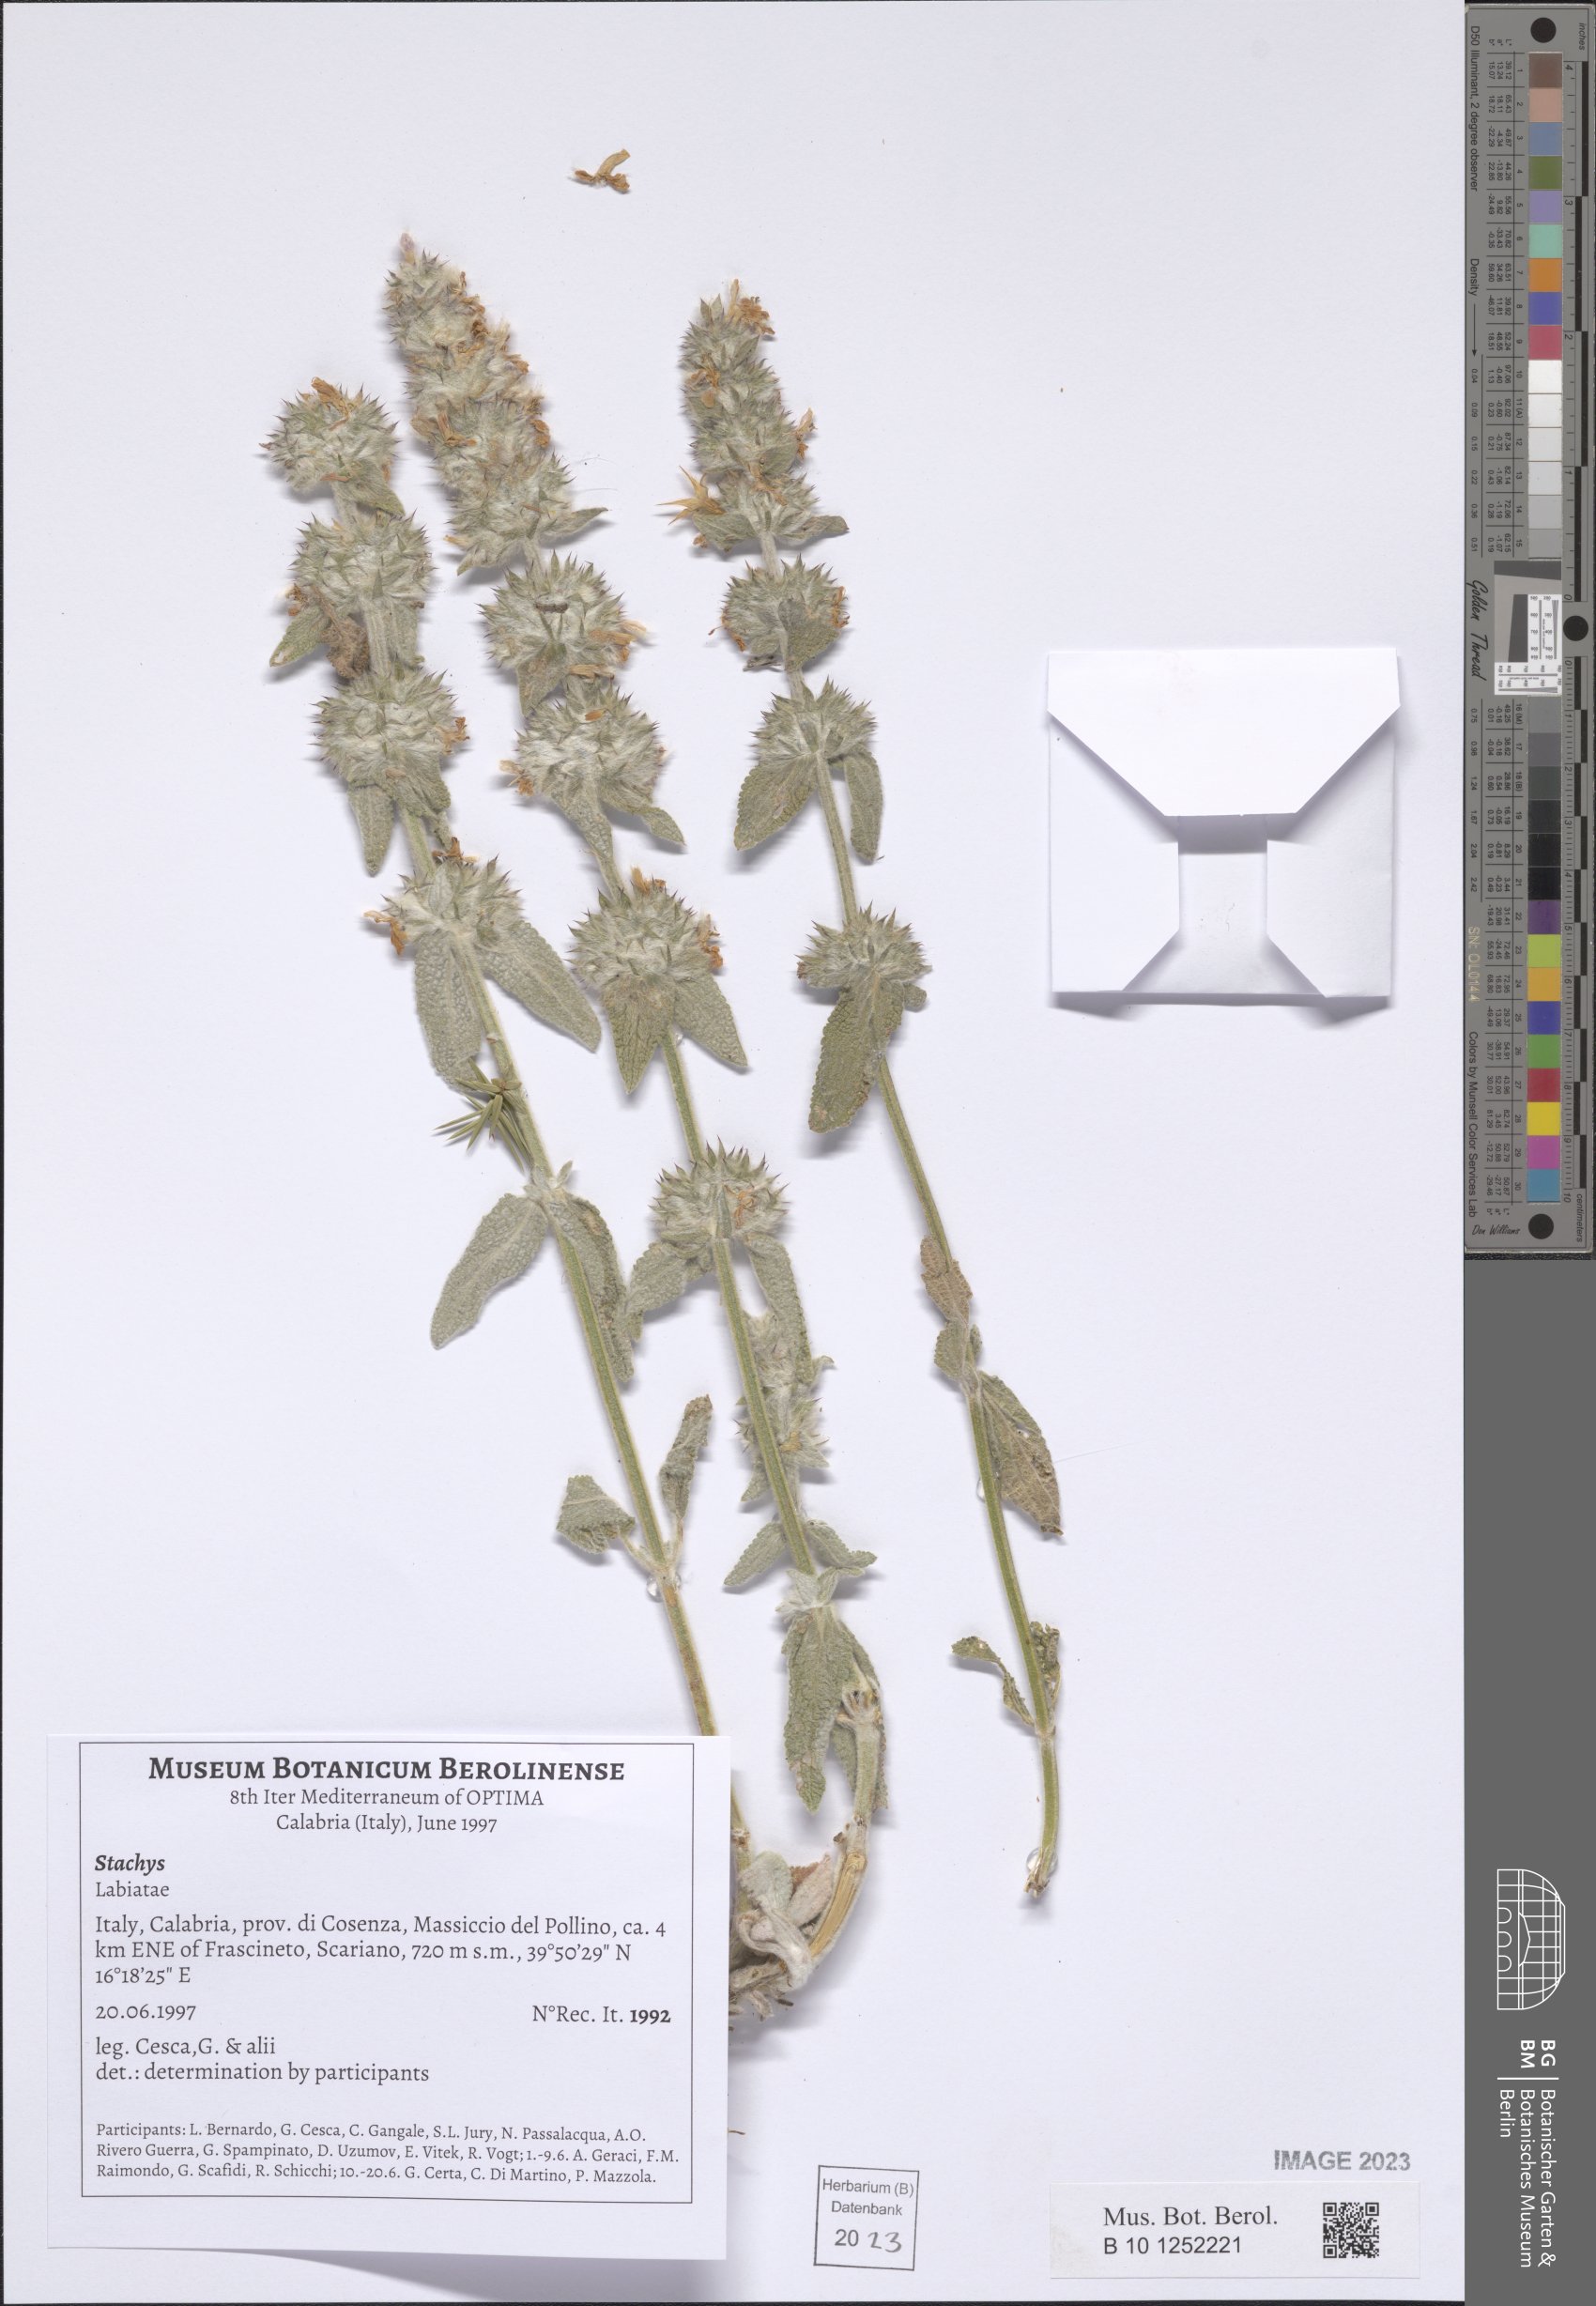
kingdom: Plantae
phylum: Tracheophyta
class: Magnoliopsida
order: Lamiales
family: Lamiaceae
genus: Stachys
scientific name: Stachys
